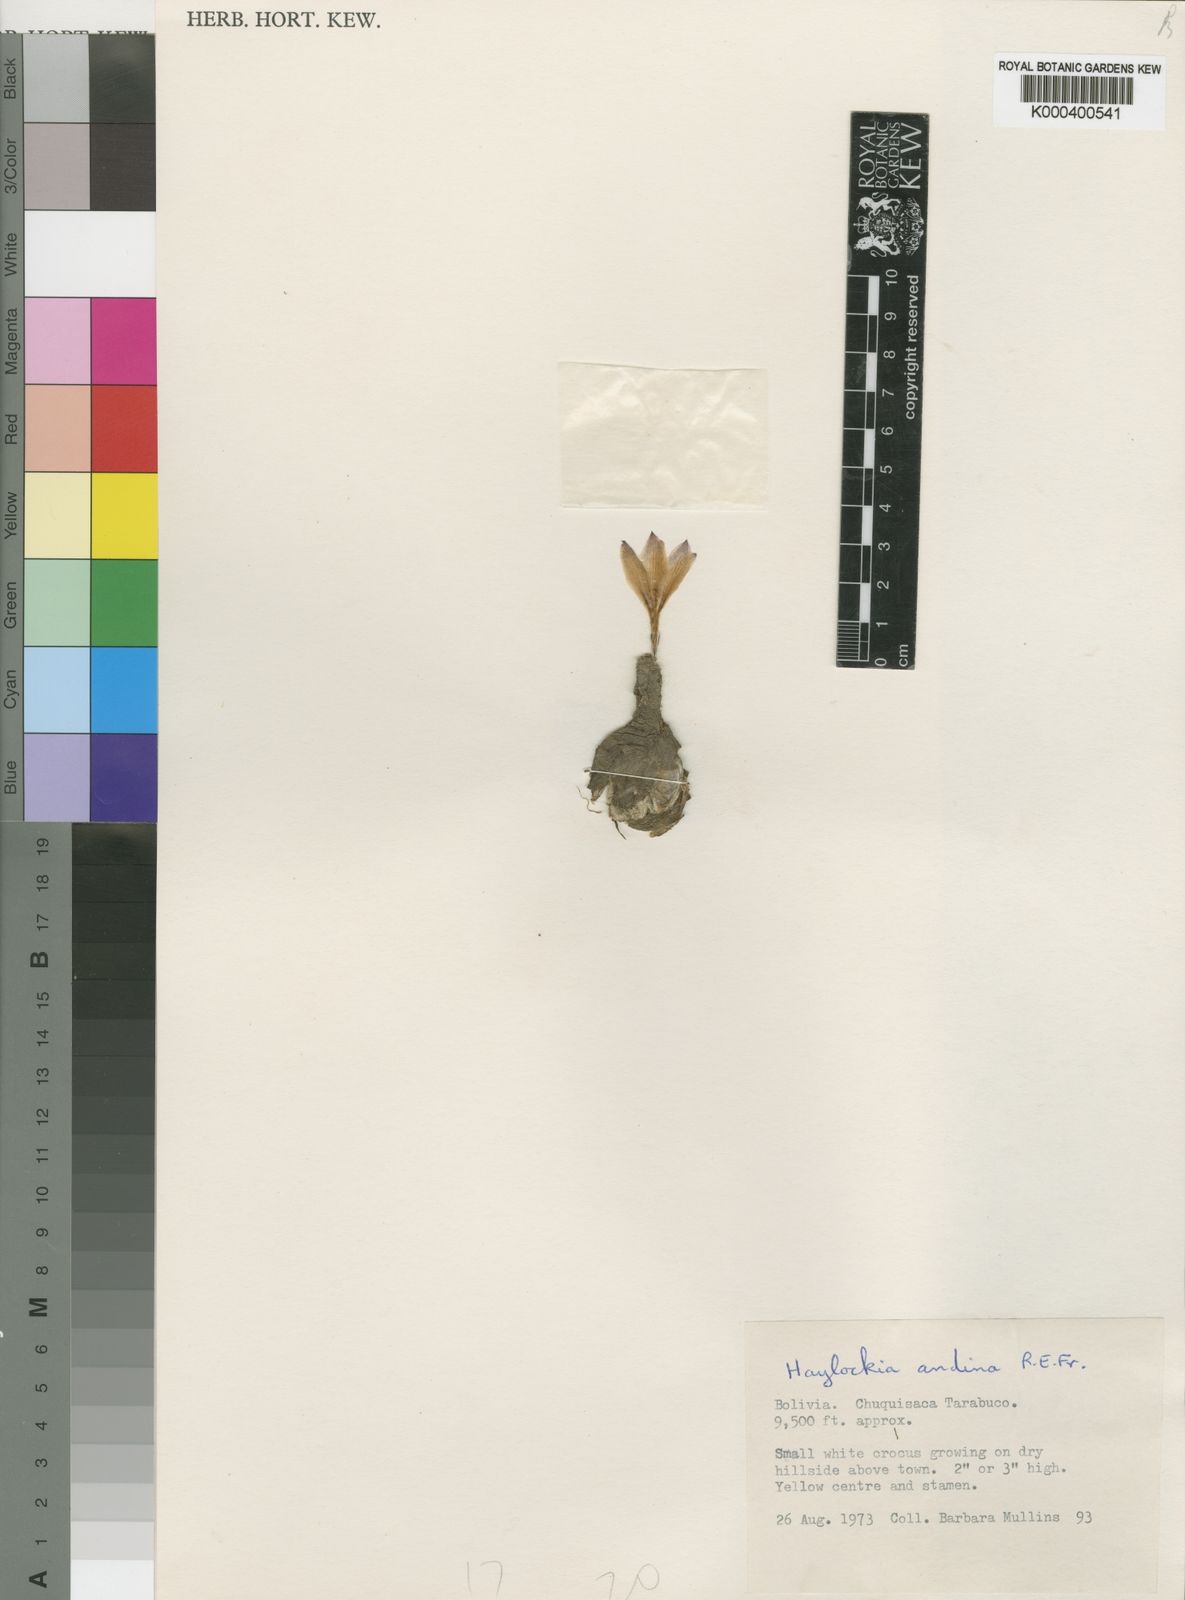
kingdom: Plantae
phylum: Tracheophyta
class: Liliopsida
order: Asparagales
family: Amaryllidaceae
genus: Zephyranthes
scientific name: Zephyranthes andina
